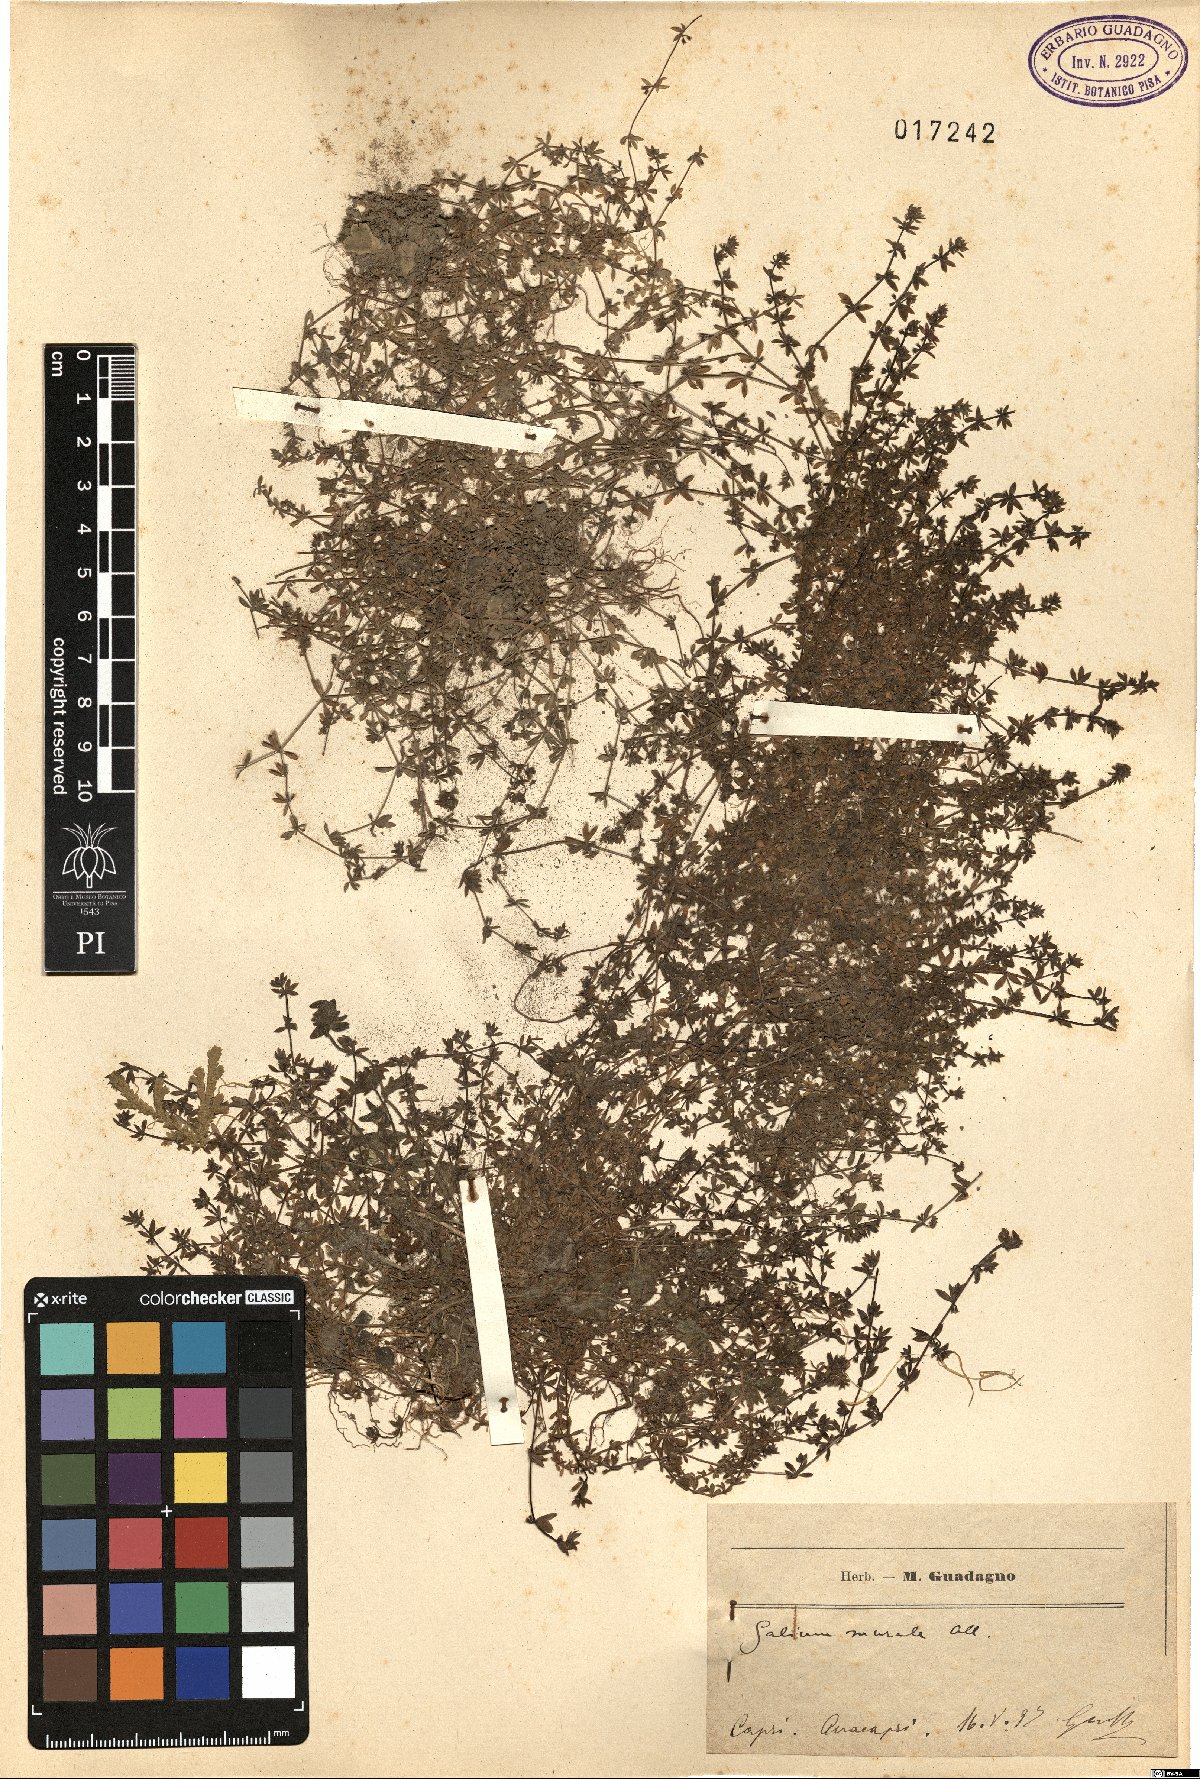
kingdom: Plantae
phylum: Tracheophyta
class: Magnoliopsida
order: Gentianales
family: Rubiaceae
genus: Galium
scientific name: Galium murale
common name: Yellow wall bedstraw
